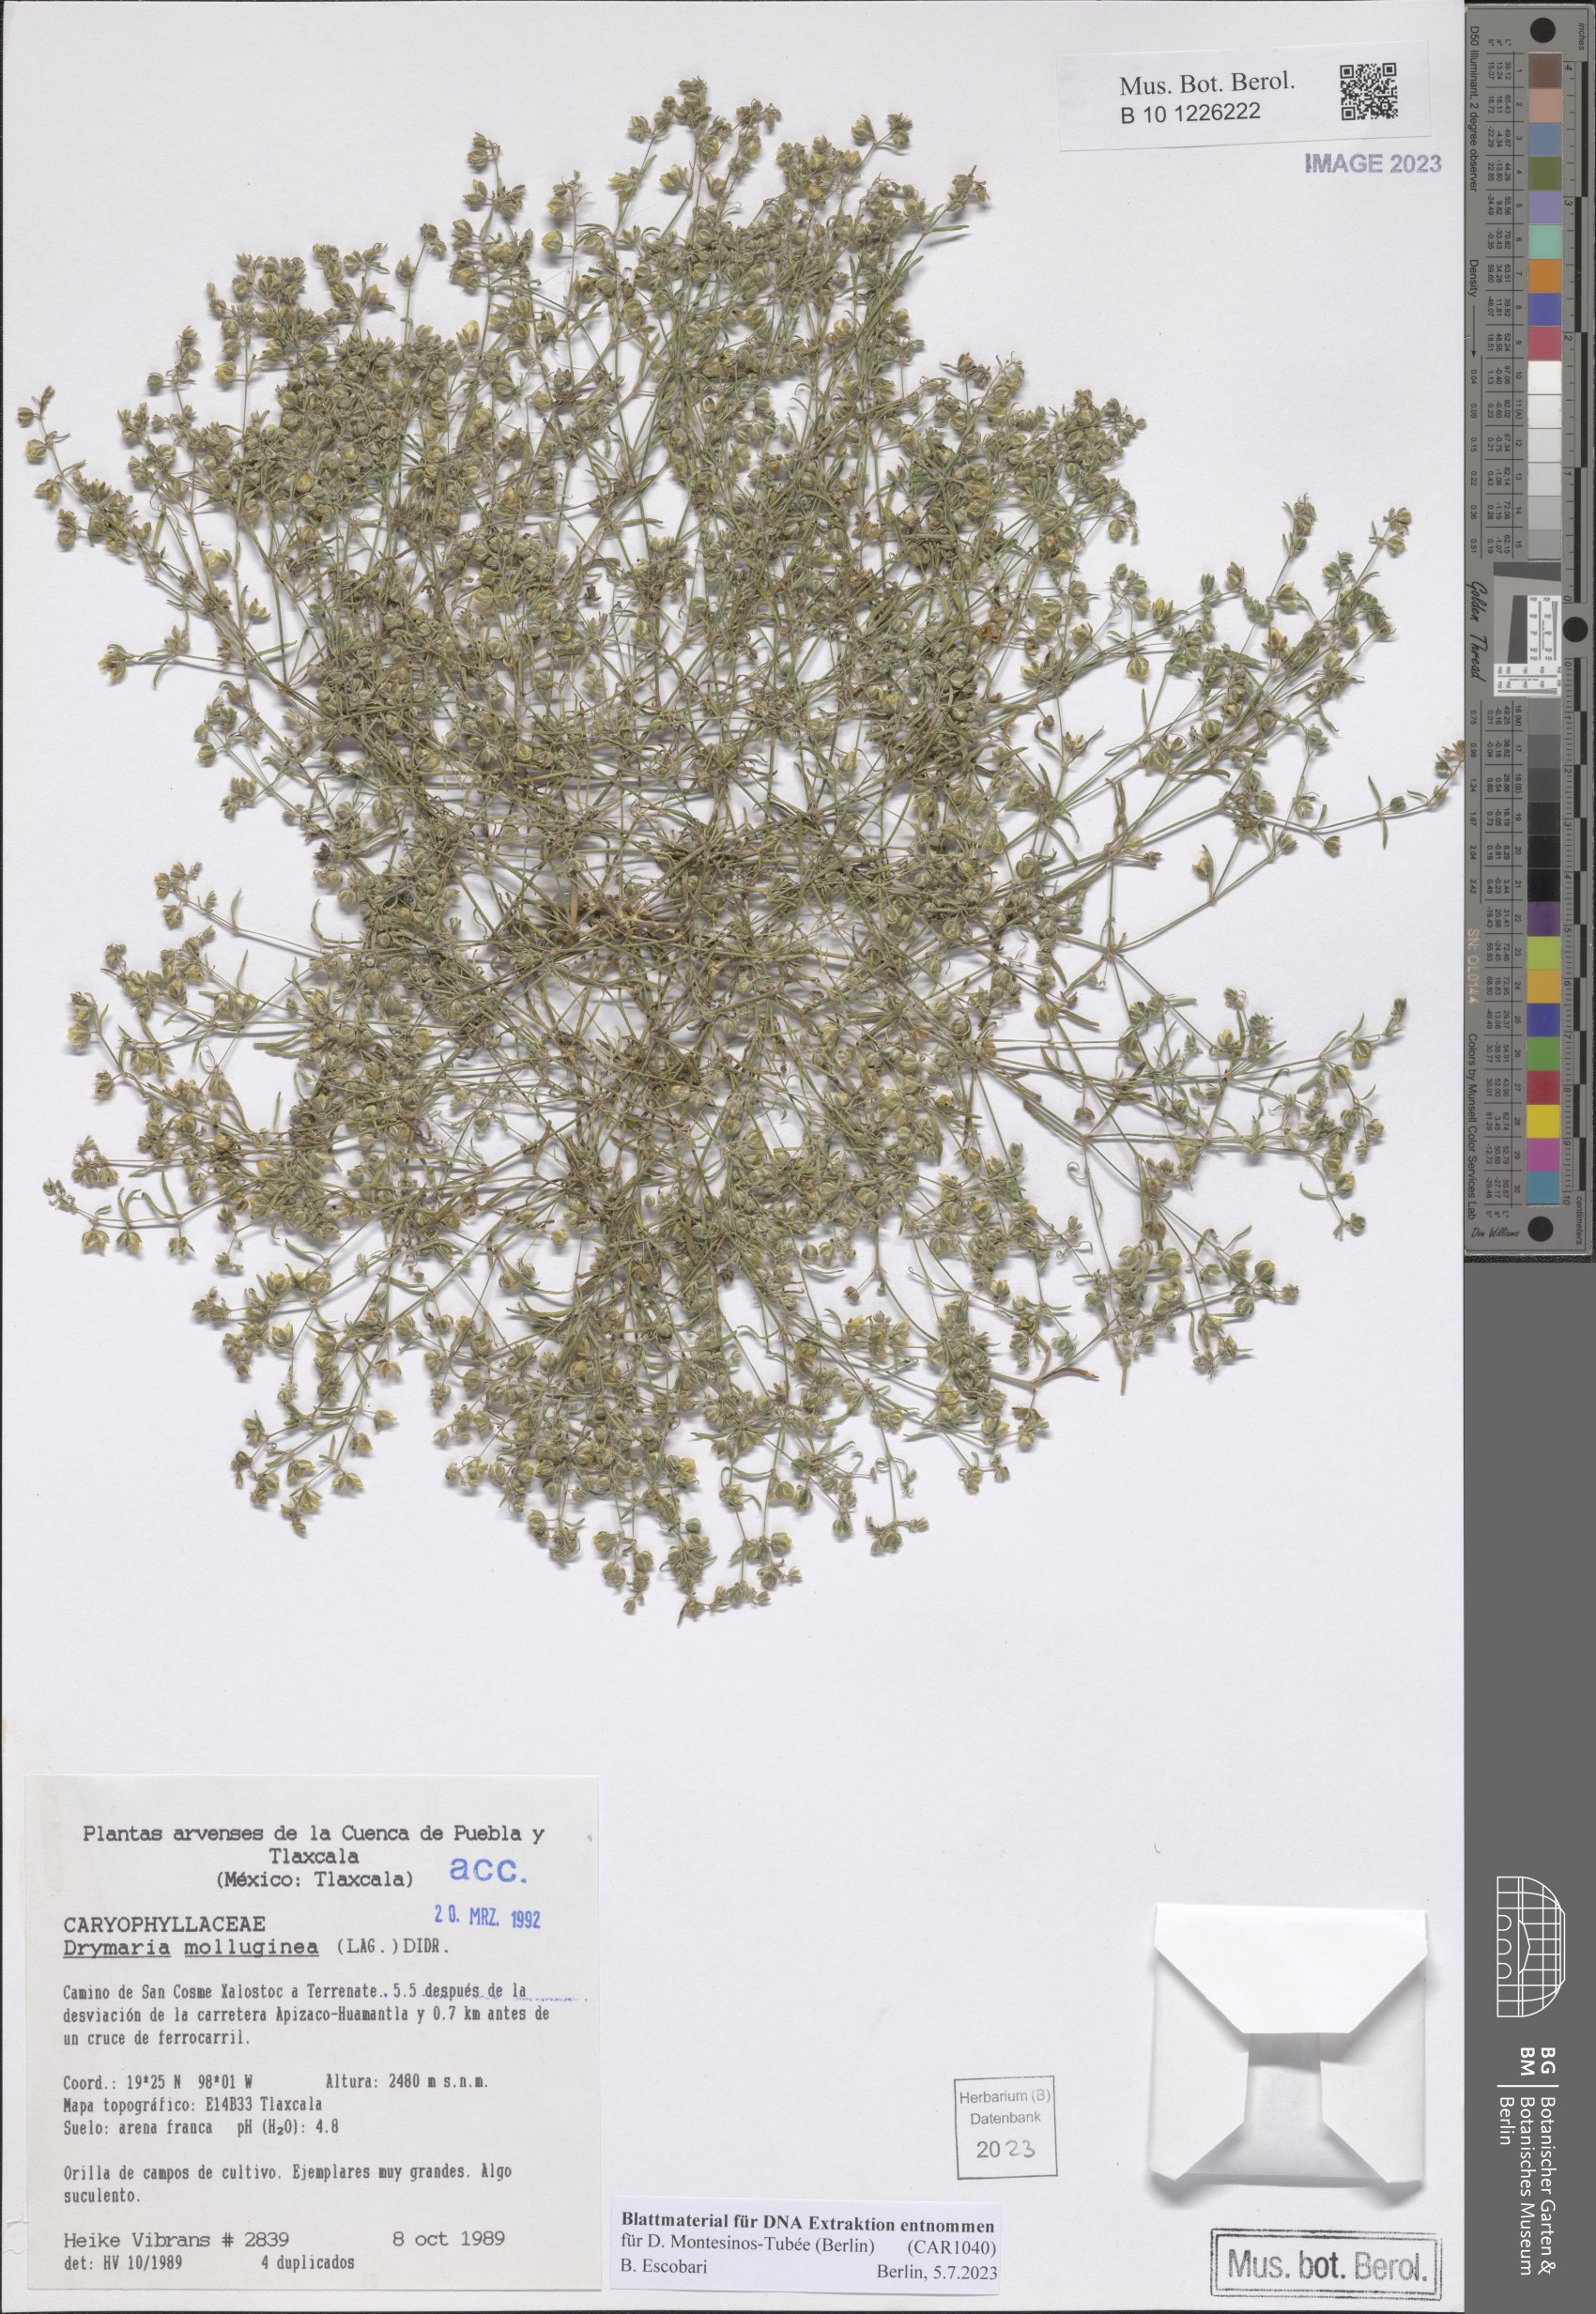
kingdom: Plantae
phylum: Tracheophyta
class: Magnoliopsida
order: Caryophyllales
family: Caryophyllaceae
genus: Drymaria
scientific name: Drymaria molluginea
